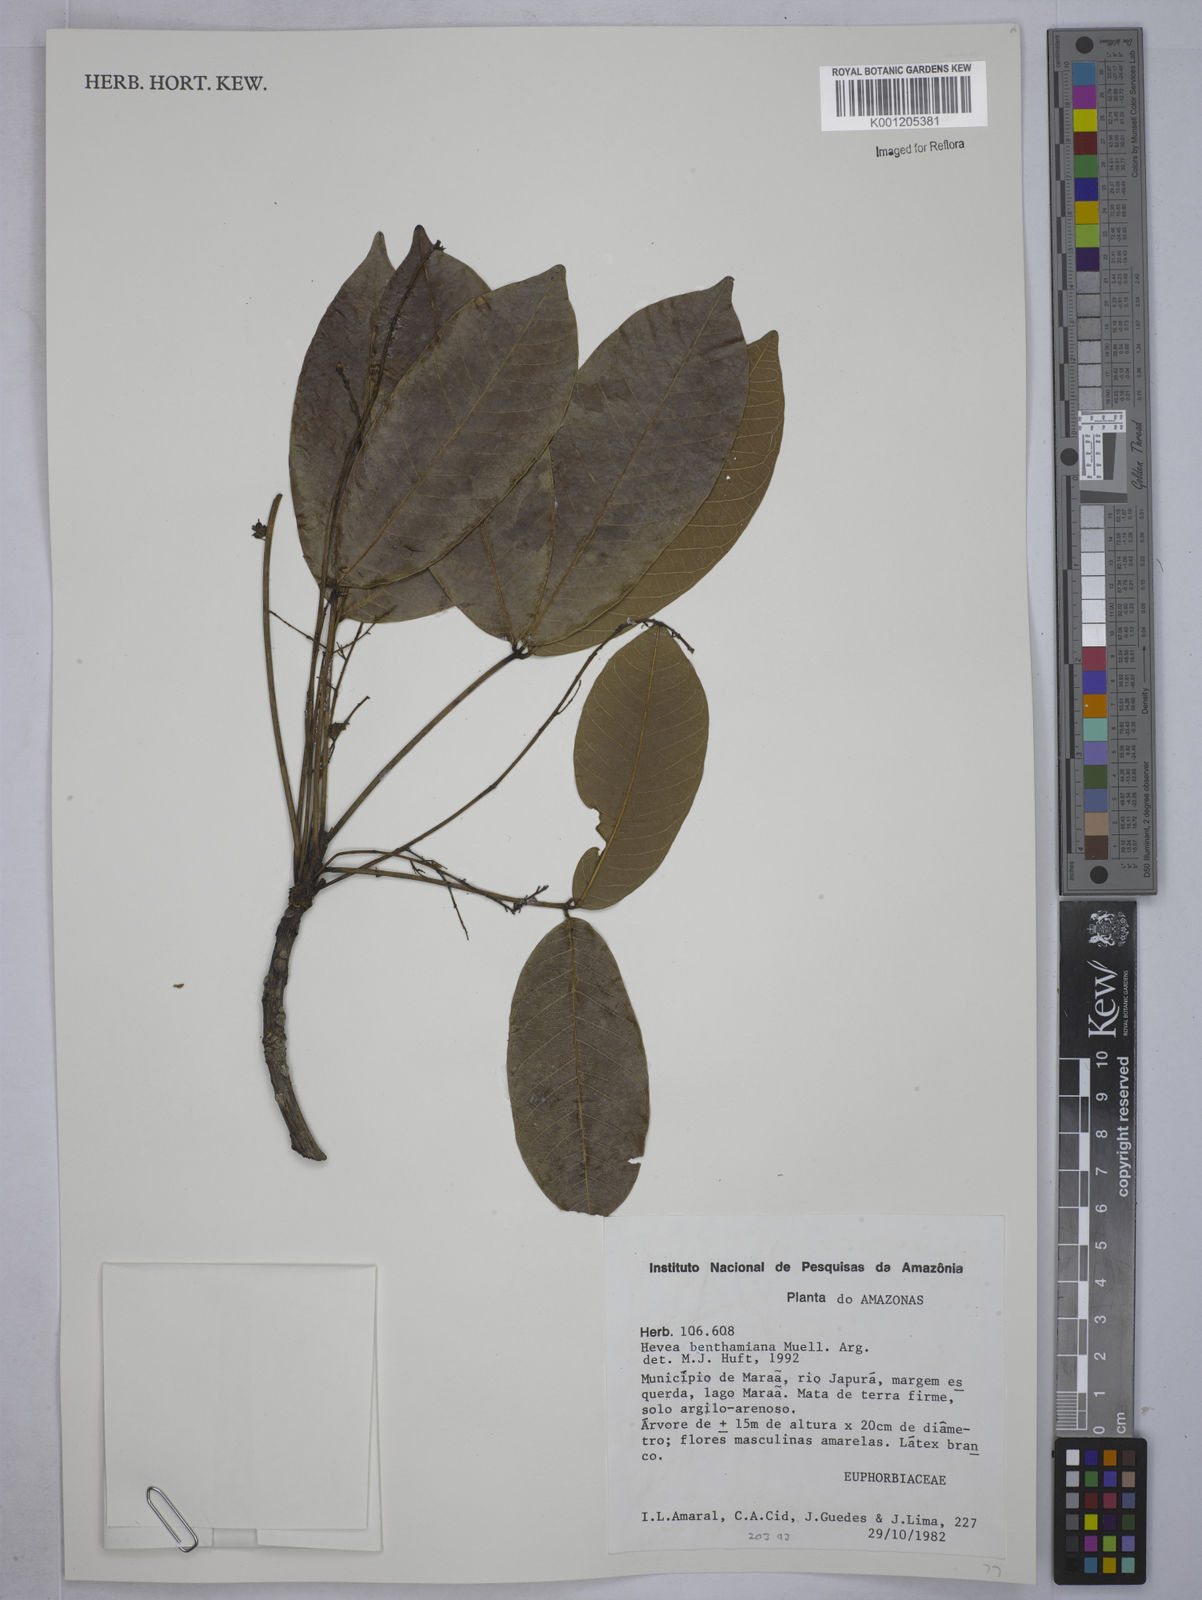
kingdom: Plantae
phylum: Tracheophyta
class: Magnoliopsida
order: Malpighiales
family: Euphorbiaceae
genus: Hevea
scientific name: Hevea
